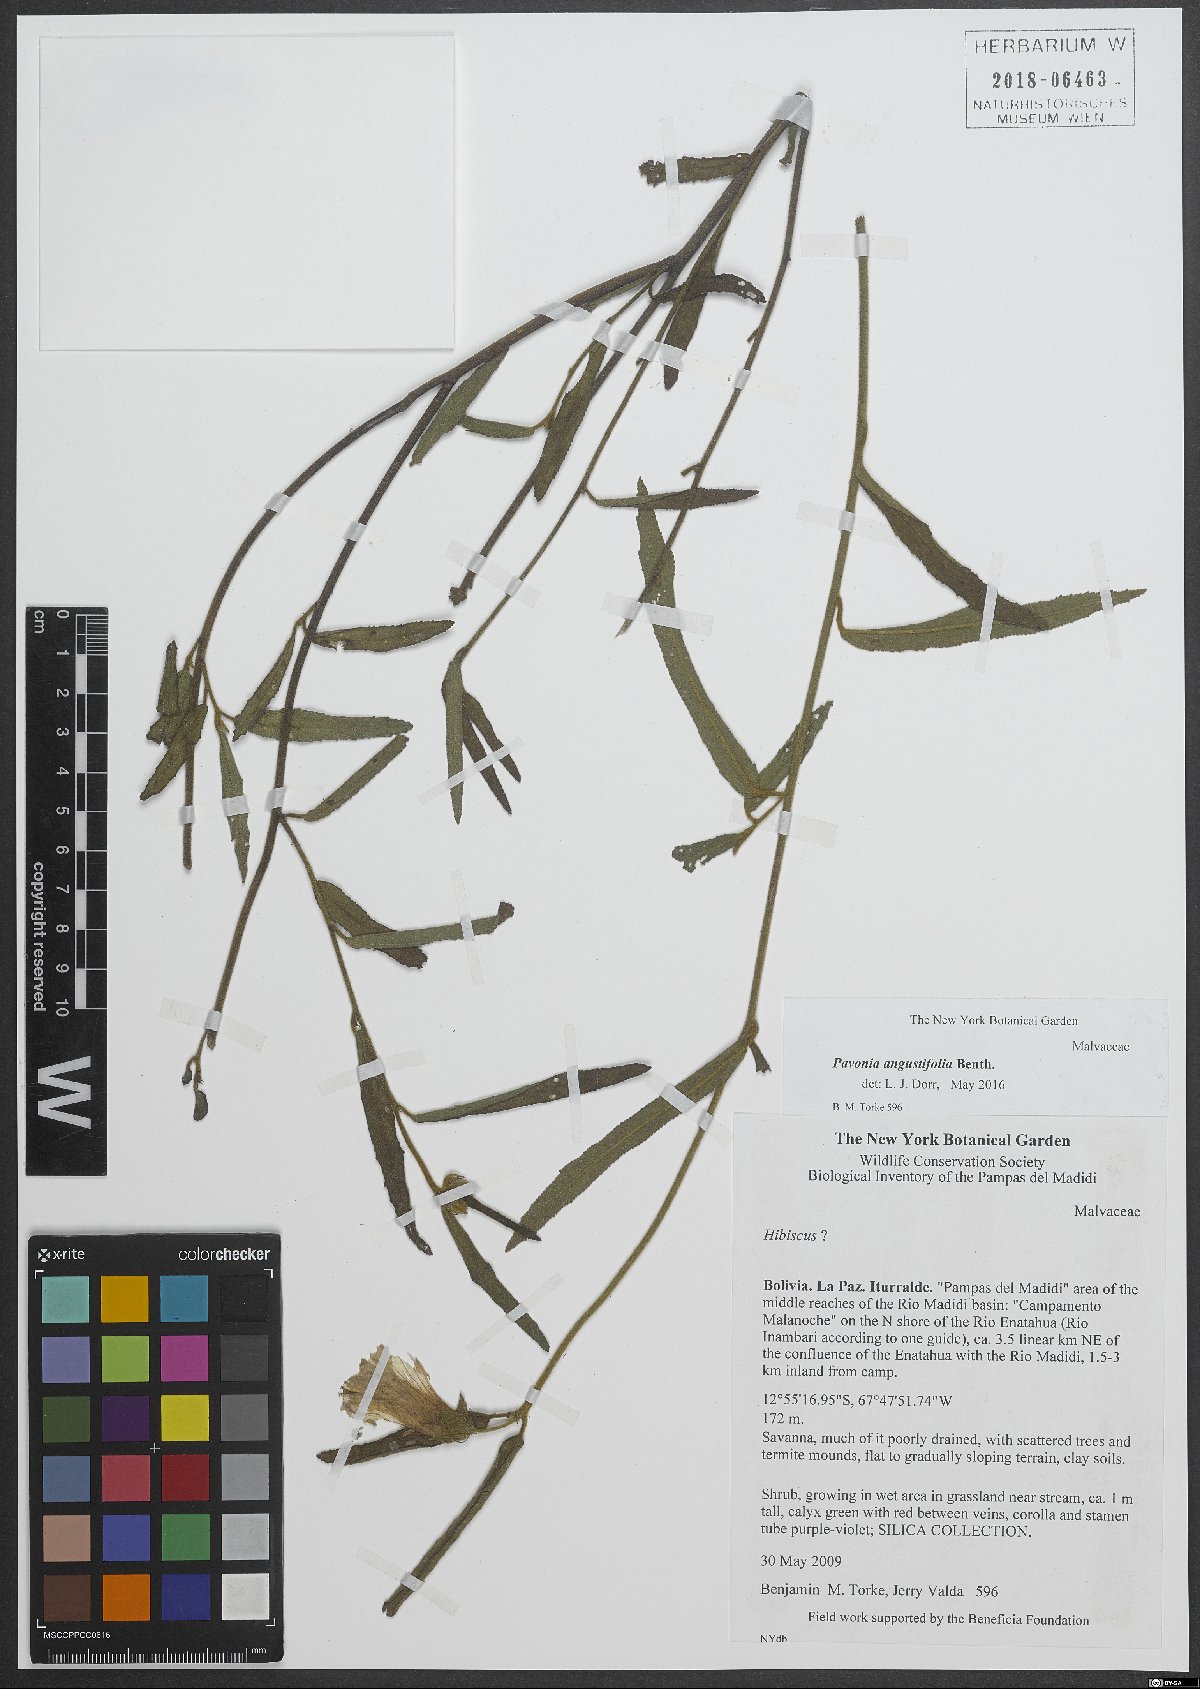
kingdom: Plantae
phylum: Tracheophyta
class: Magnoliopsida
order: Malvales
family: Malvaceae
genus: Pavonia
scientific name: Pavonia angustifolia
